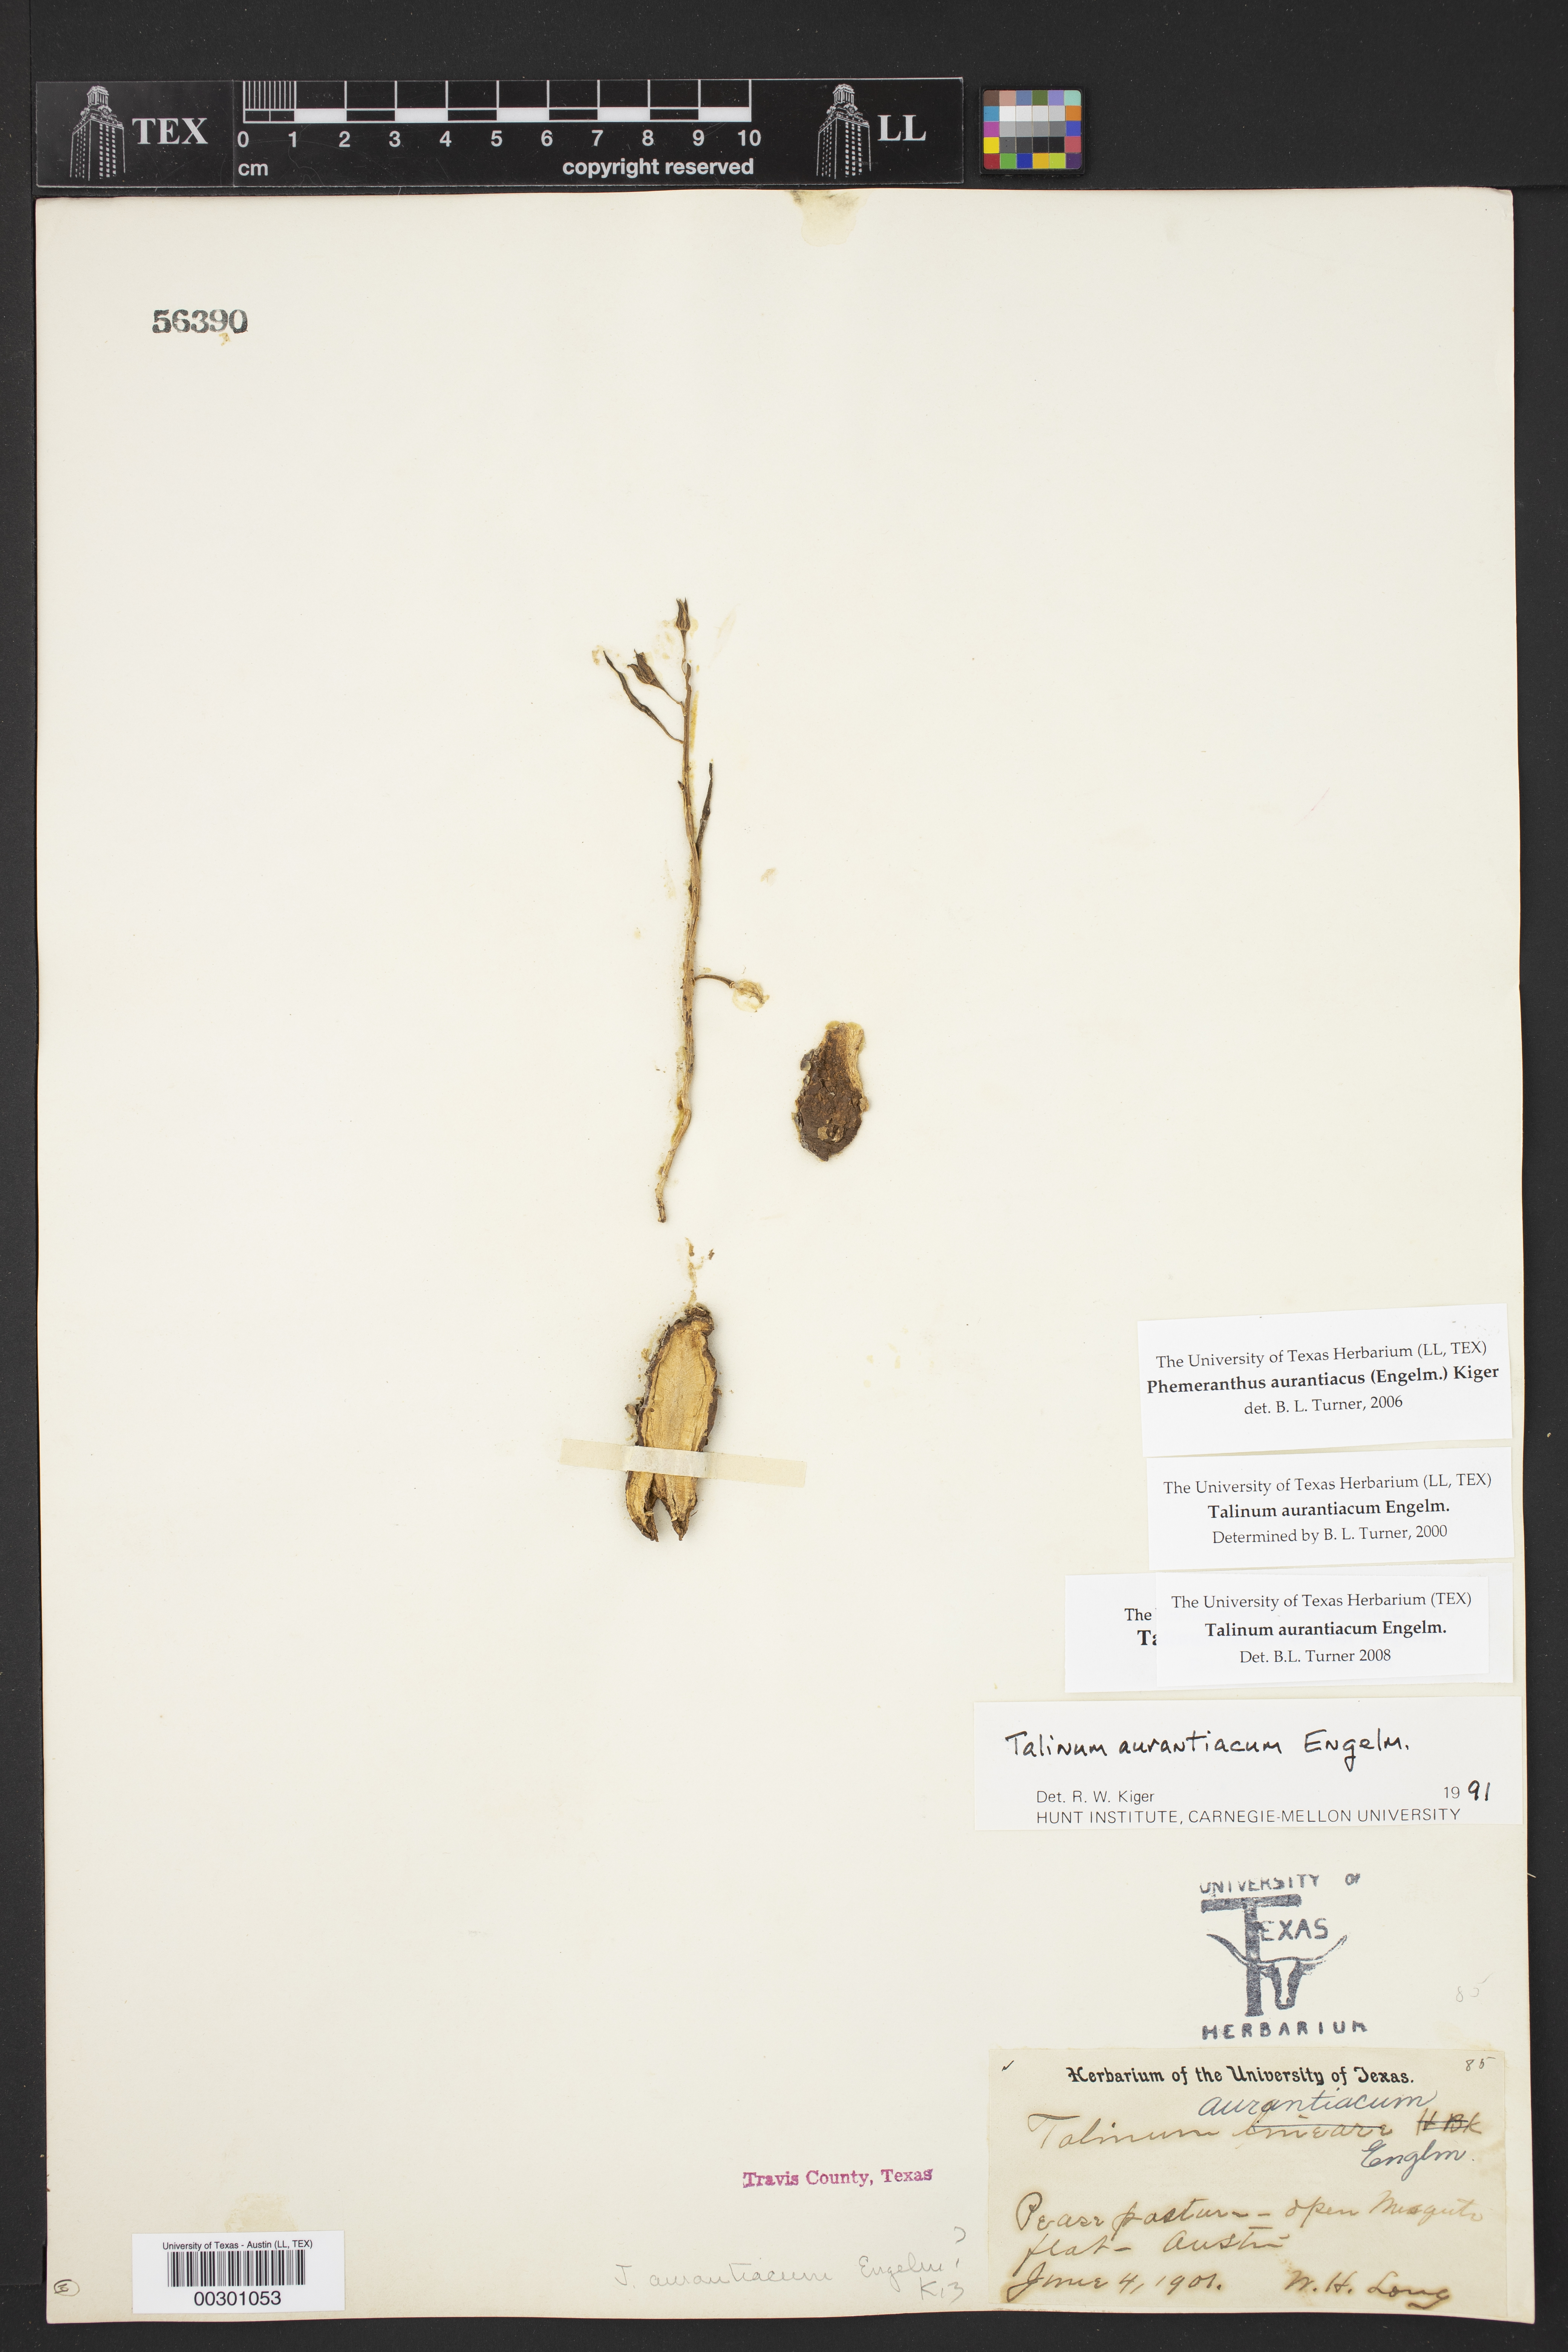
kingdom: Plantae
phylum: Tracheophyta
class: Magnoliopsida
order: Caryophyllales
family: Montiaceae
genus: Phemeranthus
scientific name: Phemeranthus aurantiacus
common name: Orange fameflower
